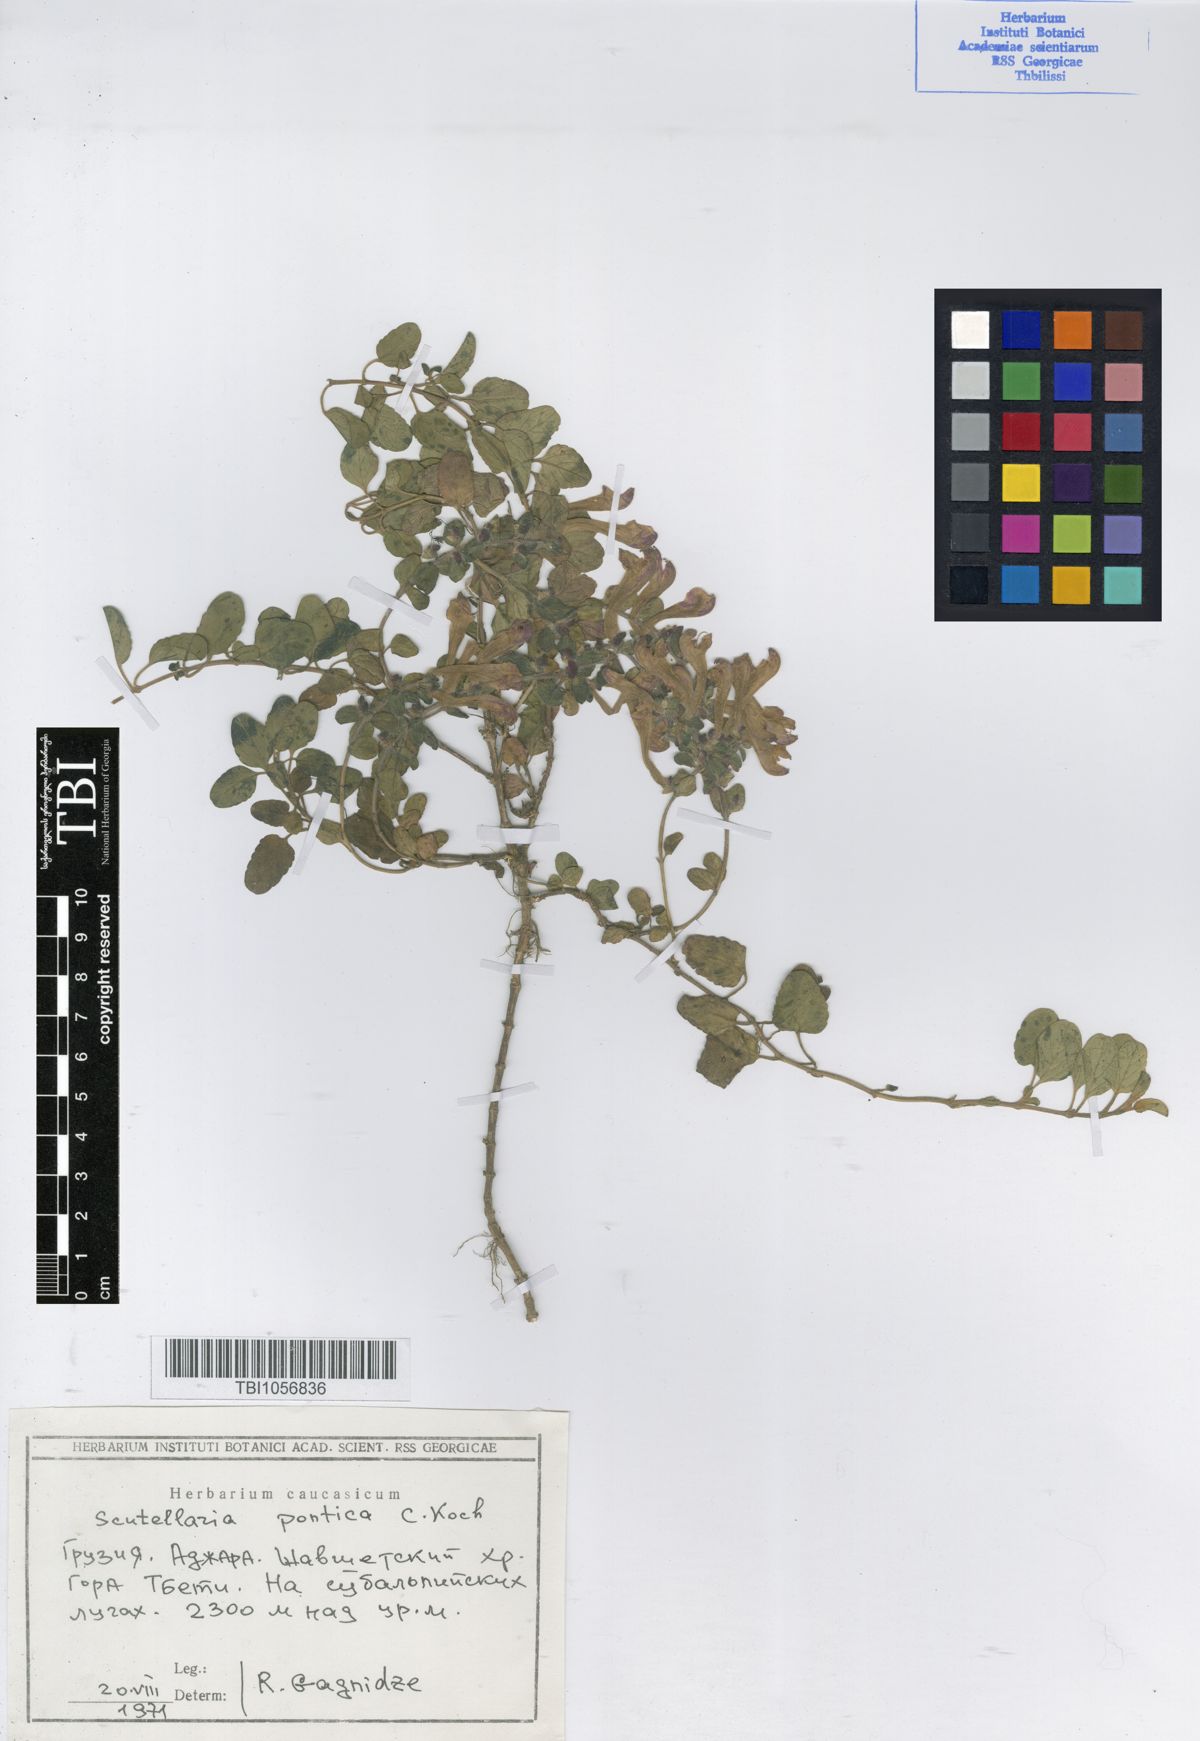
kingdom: Plantae
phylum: Tracheophyta
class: Magnoliopsida
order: Lamiales
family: Lamiaceae
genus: Scutellaria
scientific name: Scutellaria pontica
